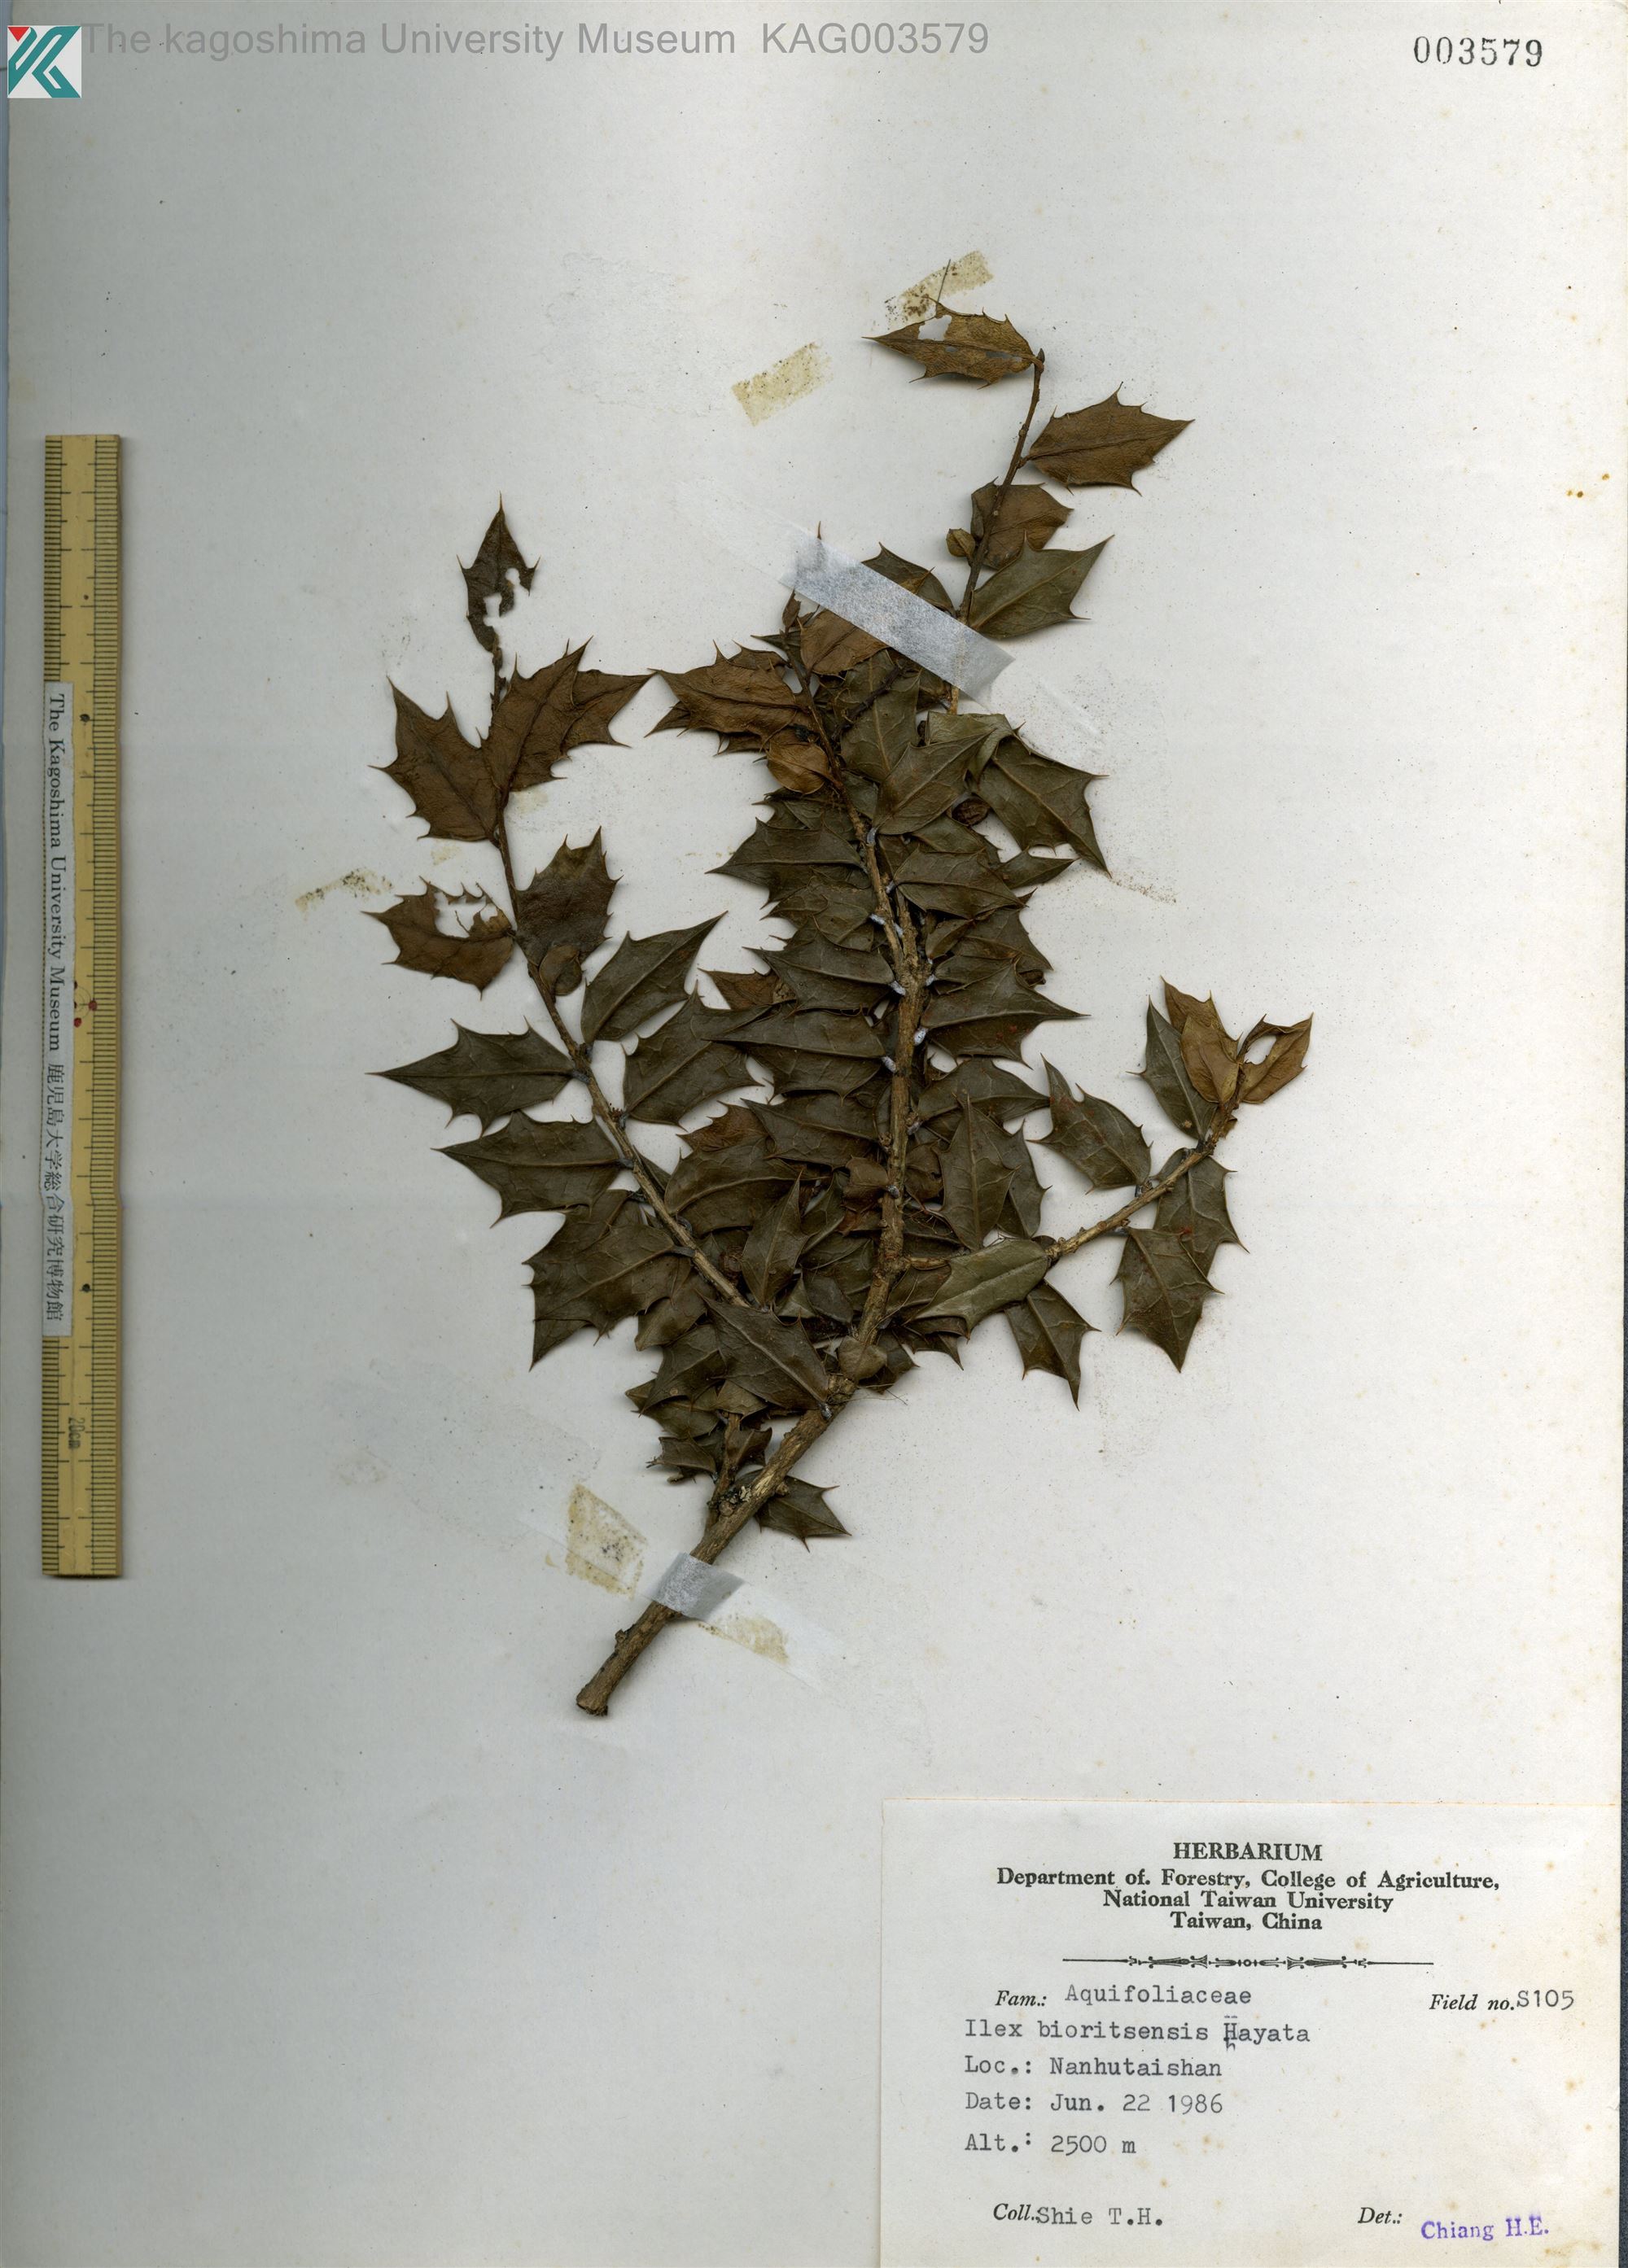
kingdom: Plantae
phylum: Tracheophyta
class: Magnoliopsida
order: Aquifoliales
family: Aquifoliaceae
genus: Ilex
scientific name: Ilex bioritensis
